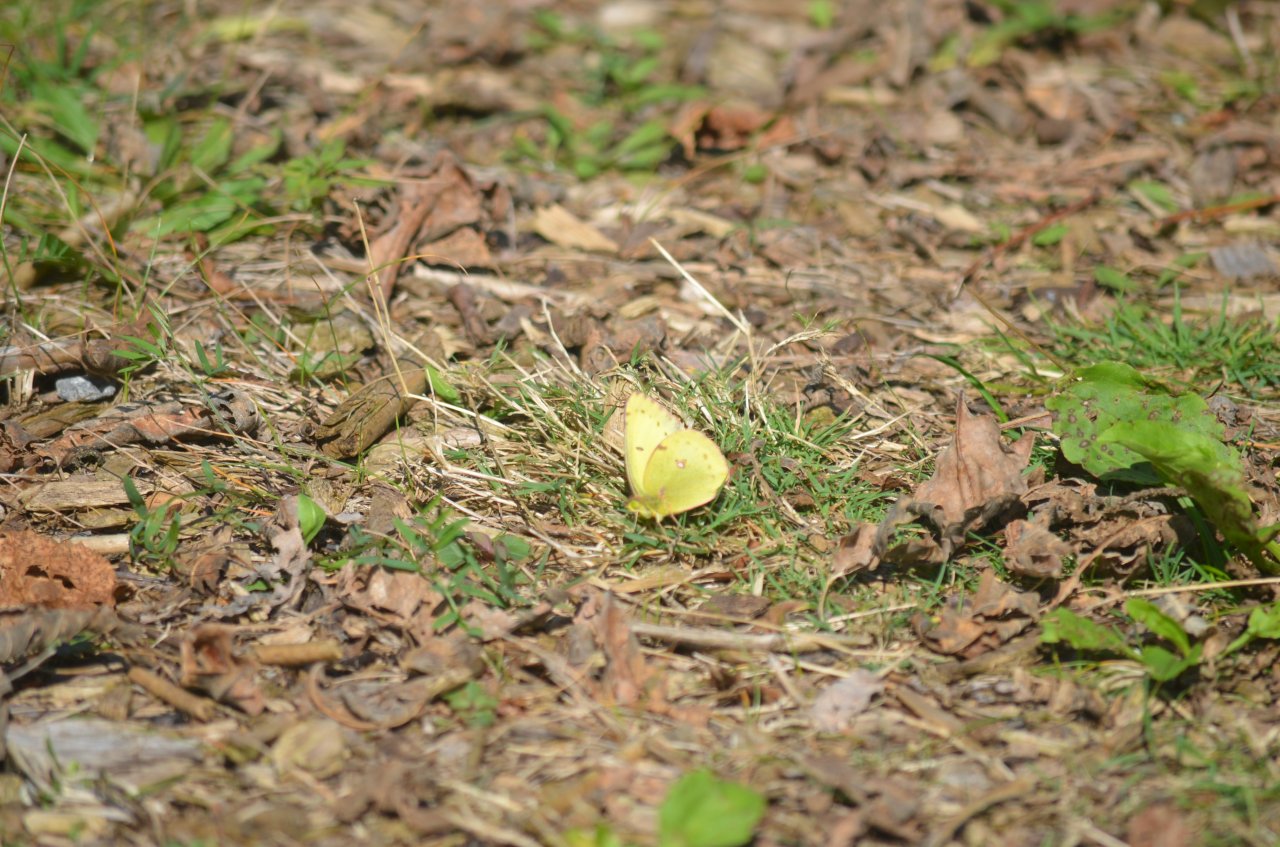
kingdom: Animalia
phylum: Arthropoda
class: Insecta
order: Lepidoptera
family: Pieridae
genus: Colias
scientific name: Colias philodice
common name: Clouded Sulphur
